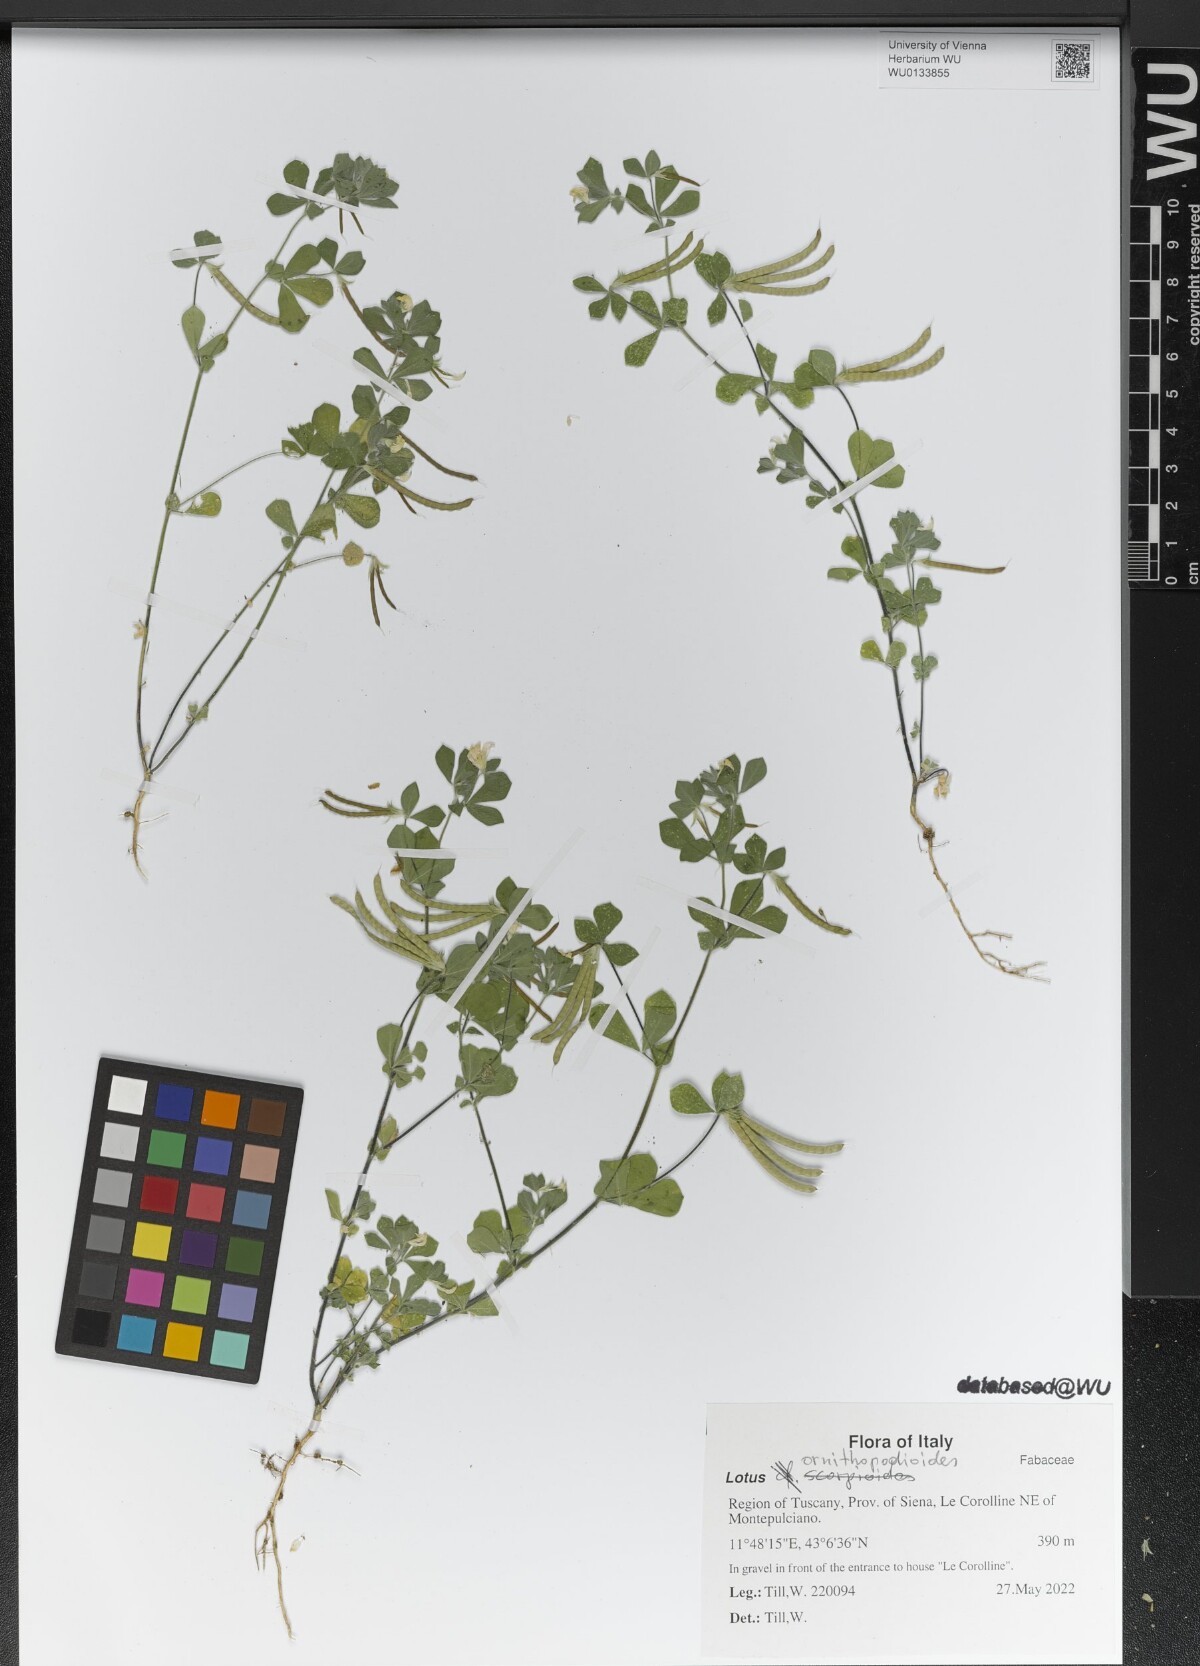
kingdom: Plantae
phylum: Tracheophyta
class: Magnoliopsida
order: Fabales
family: Fabaceae
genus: Lotus
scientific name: Lotus ornithopodioides
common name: Southern bird's-foot trefoil
